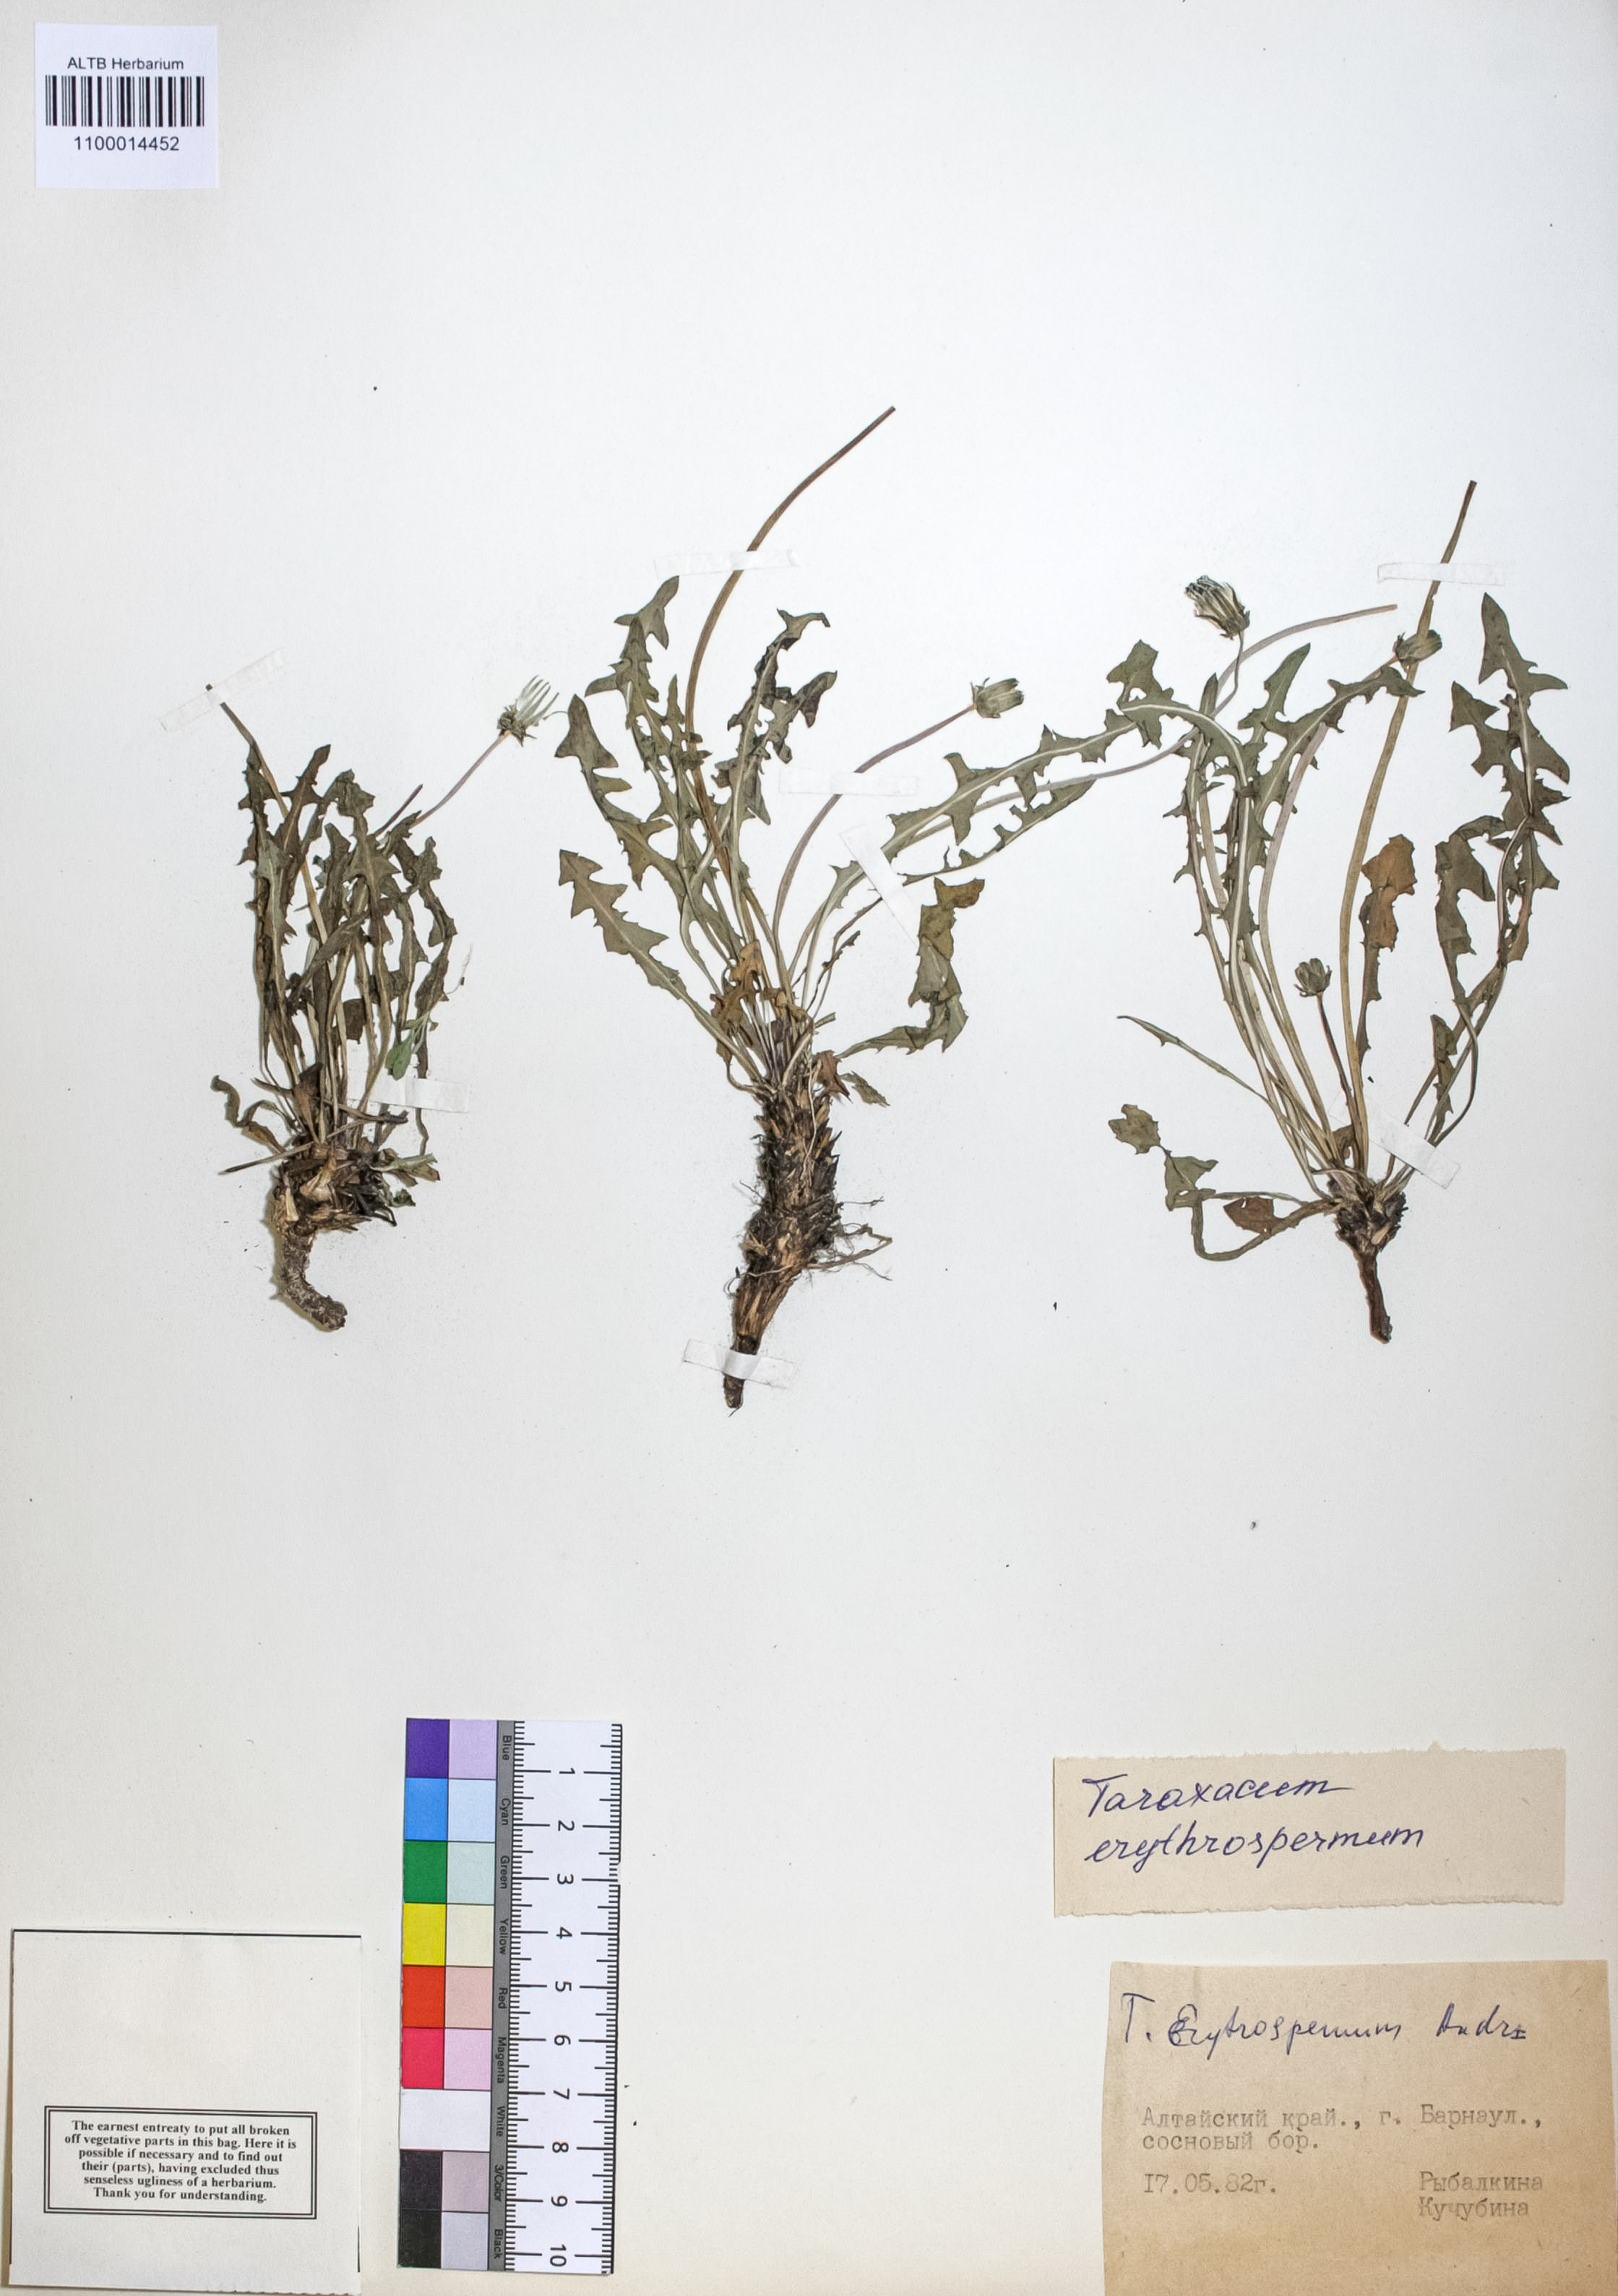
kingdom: Plantae
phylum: Tracheophyta
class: Magnoliopsida
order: Asterales
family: Asteraceae
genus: Taraxacum
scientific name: Taraxacum erythrospermum
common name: Rock dandelion
